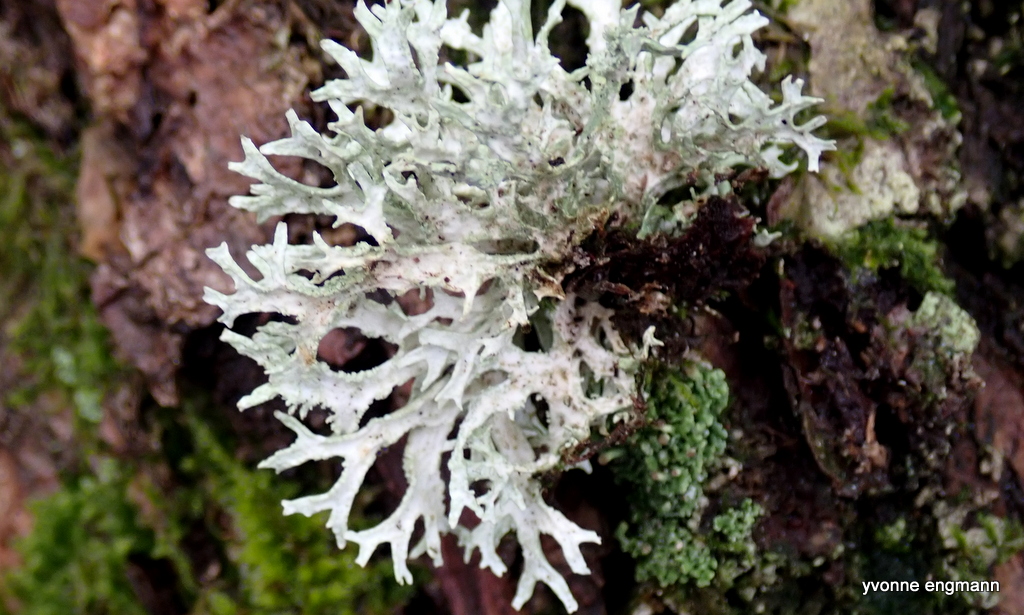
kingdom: Fungi
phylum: Ascomycota
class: Lecanoromycetes
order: Lecanorales
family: Parmeliaceae
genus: Evernia
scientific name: Evernia prunastri
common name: almindelig slåenlav
